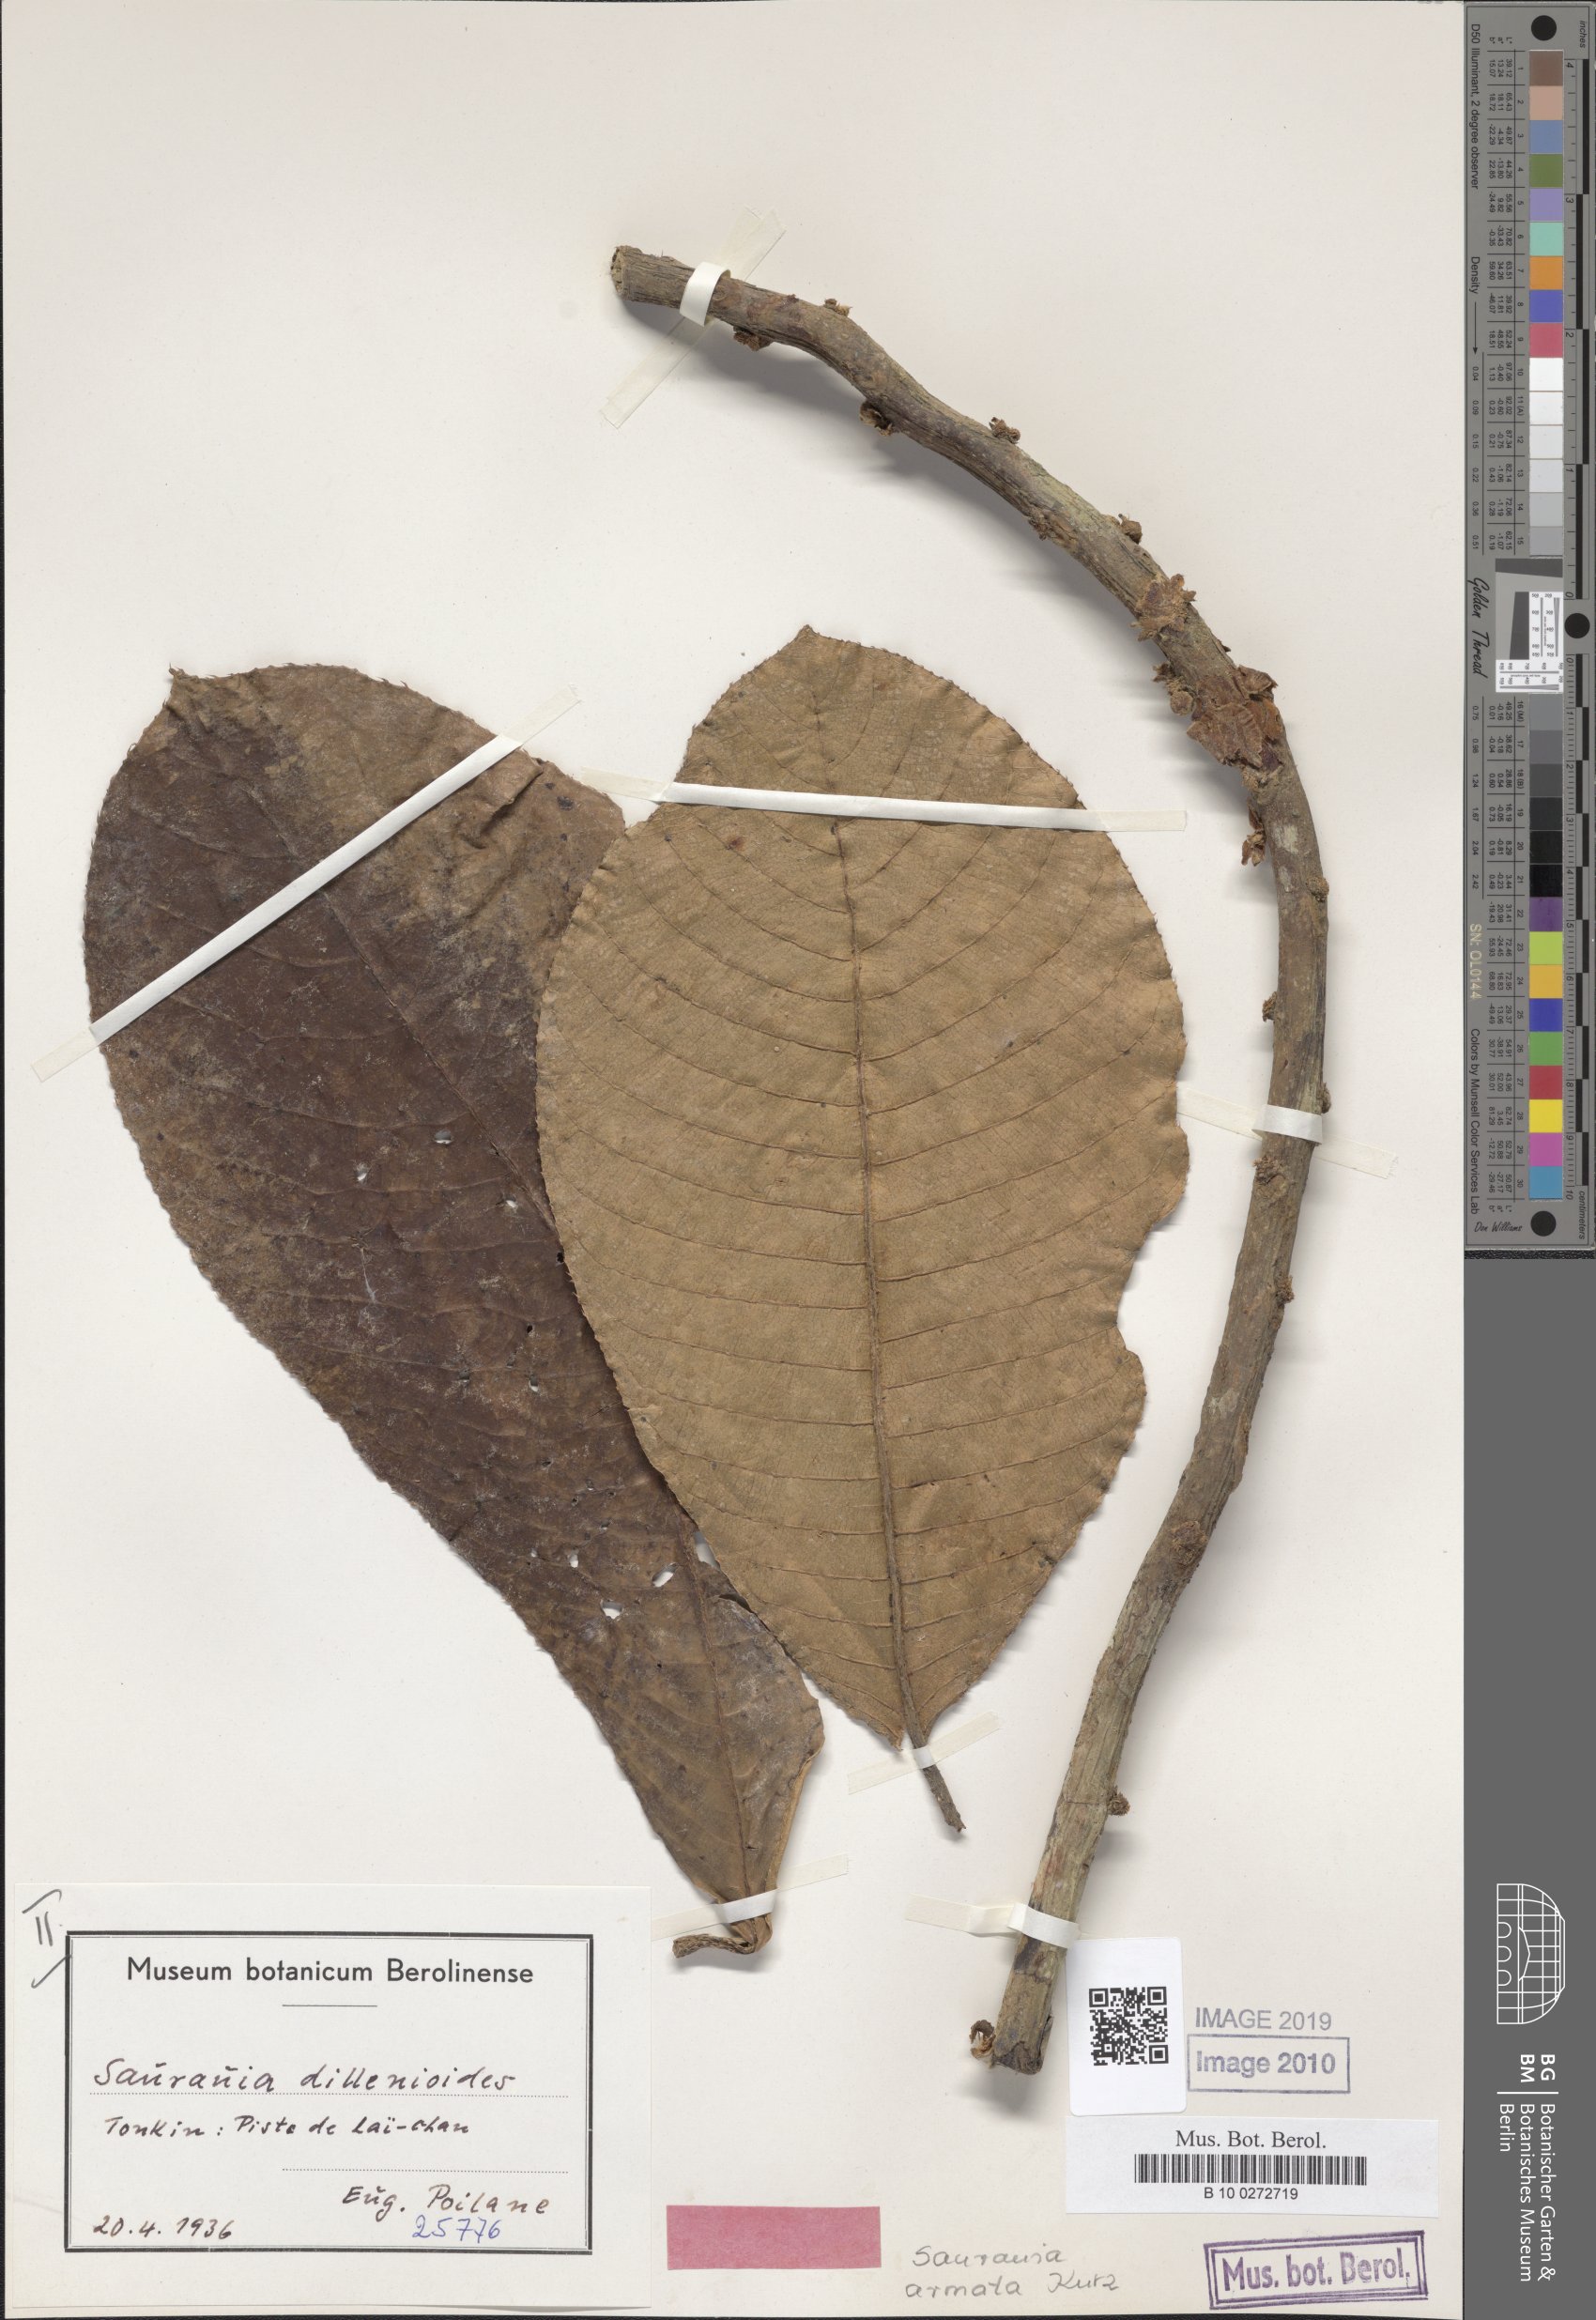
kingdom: Plantae
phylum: Tracheophyta
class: Magnoliopsida
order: Ericales
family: Actinidiaceae
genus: Saurauia
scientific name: Saurauia armata
